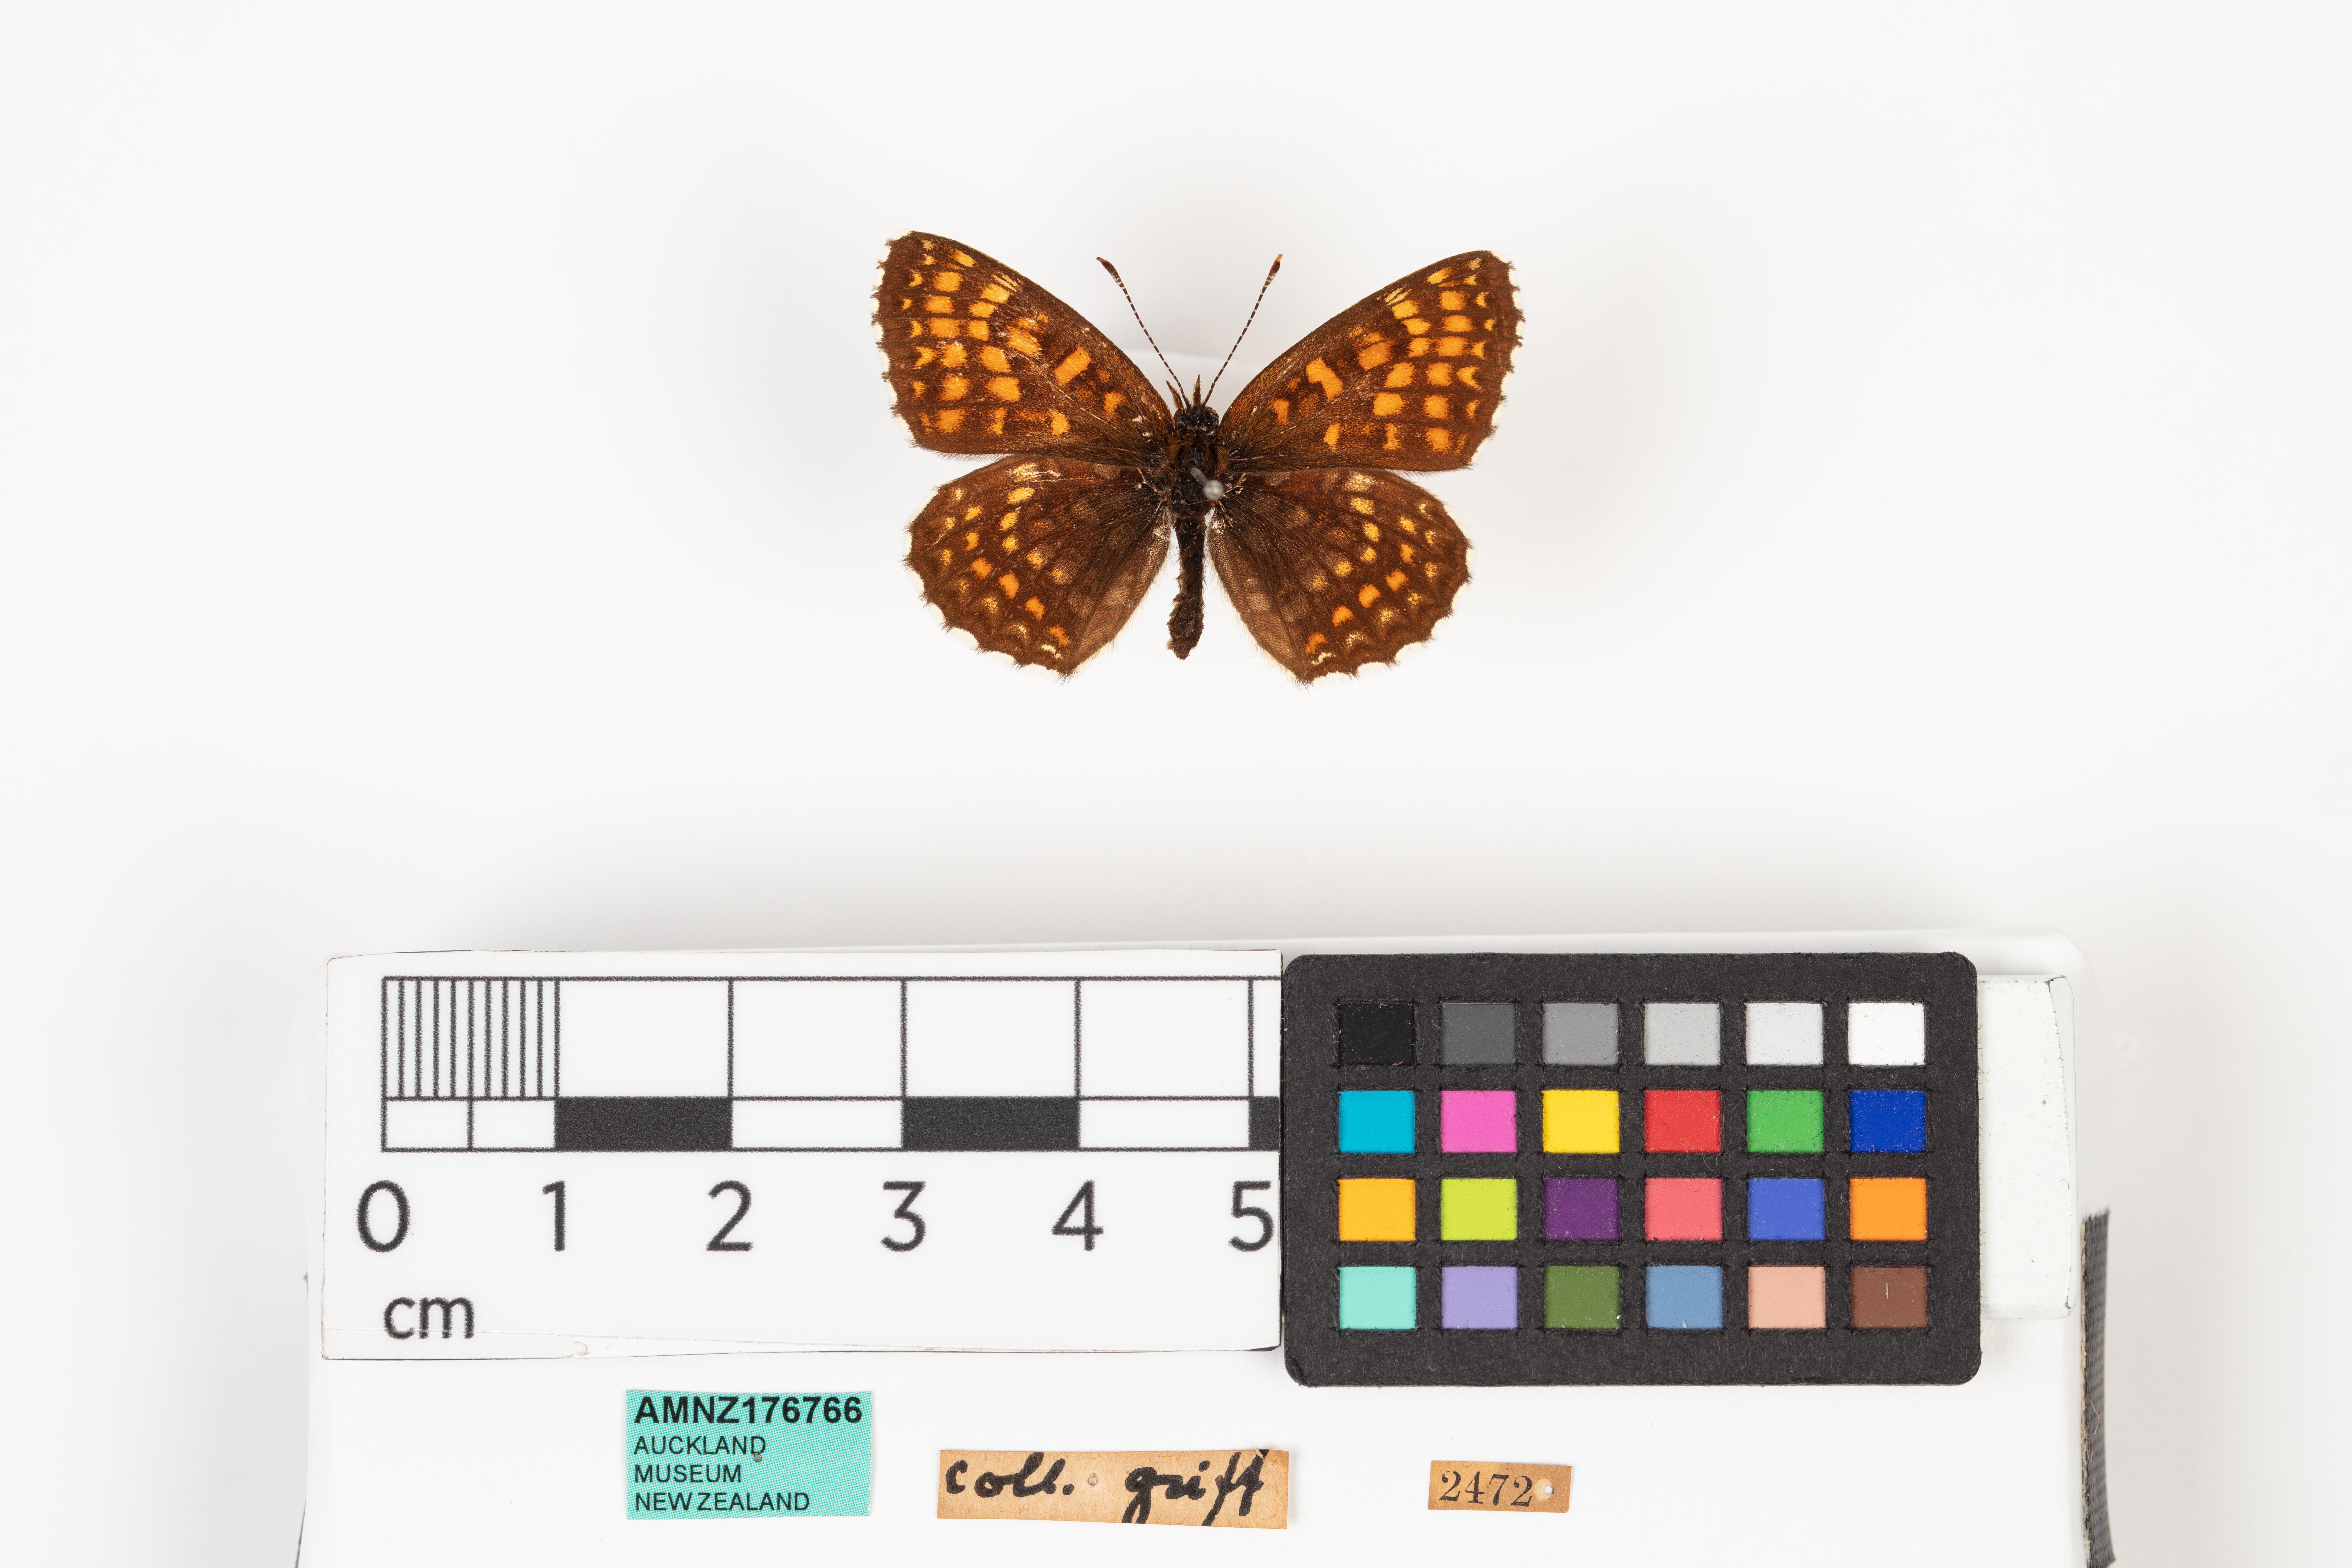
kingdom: Animalia
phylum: Arthropoda
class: Insecta
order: Lepidoptera
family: Nymphalidae
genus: Aglais
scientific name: Aglais urticae
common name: Small tortoiseshell
